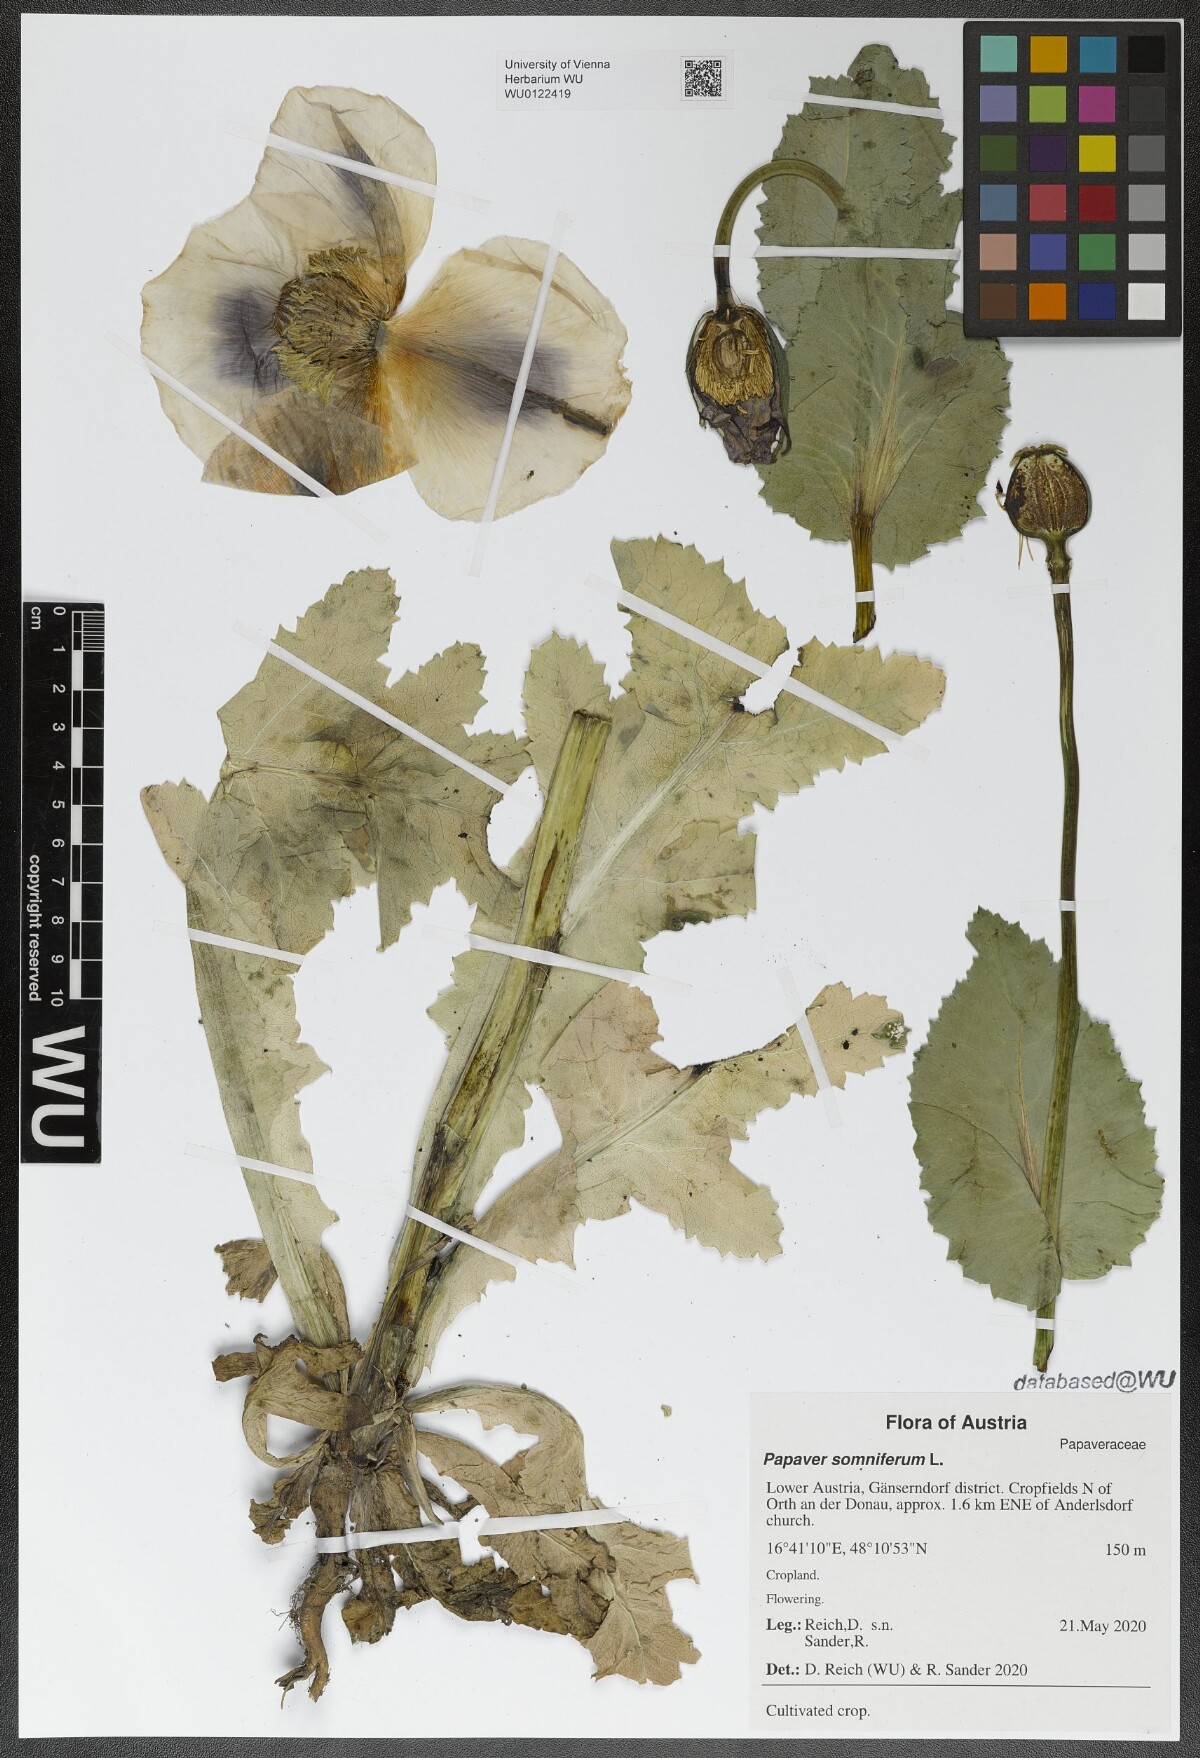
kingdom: Plantae
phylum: Tracheophyta
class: Magnoliopsida
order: Ranunculales
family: Papaveraceae
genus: Papaver
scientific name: Papaver somniferum
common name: Opium poppy
